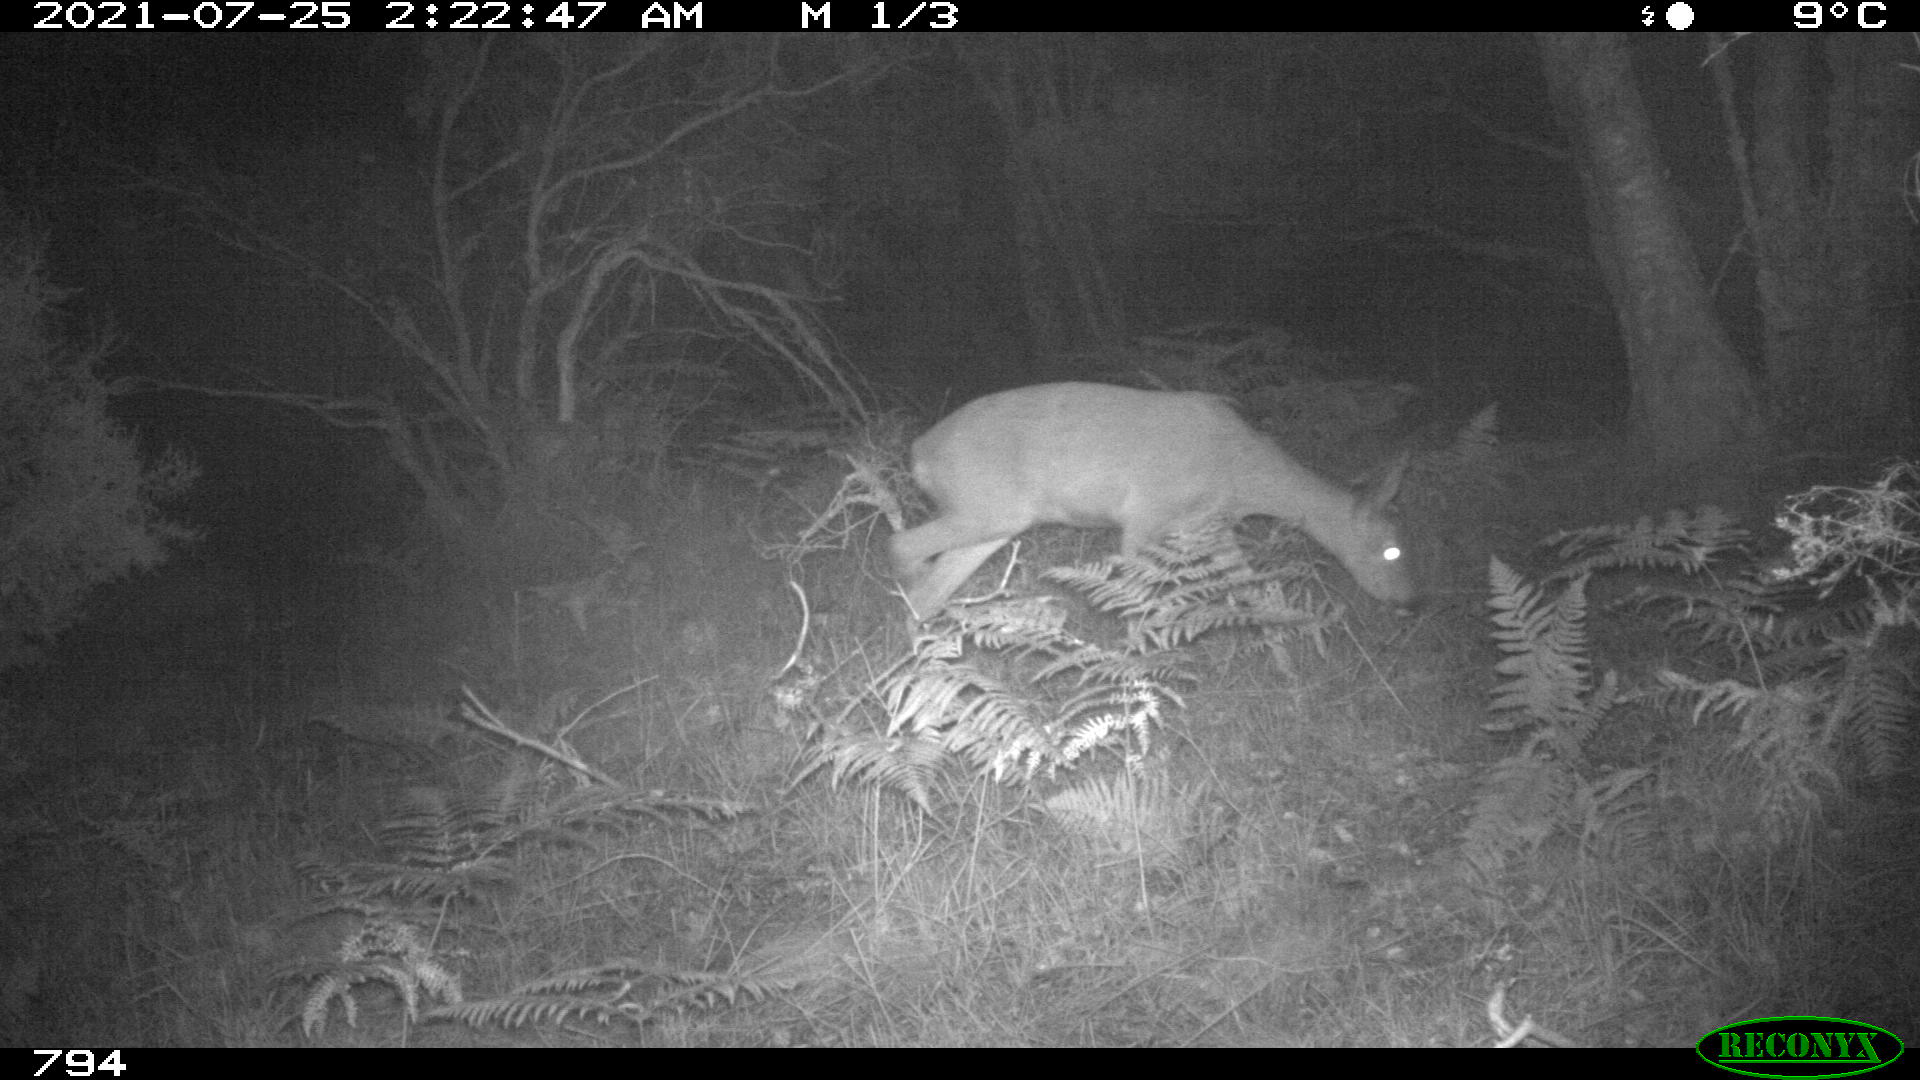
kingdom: Animalia
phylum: Chordata
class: Mammalia
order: Artiodactyla
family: Cervidae
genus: Capreolus
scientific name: Capreolus capreolus
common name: Western roe deer
